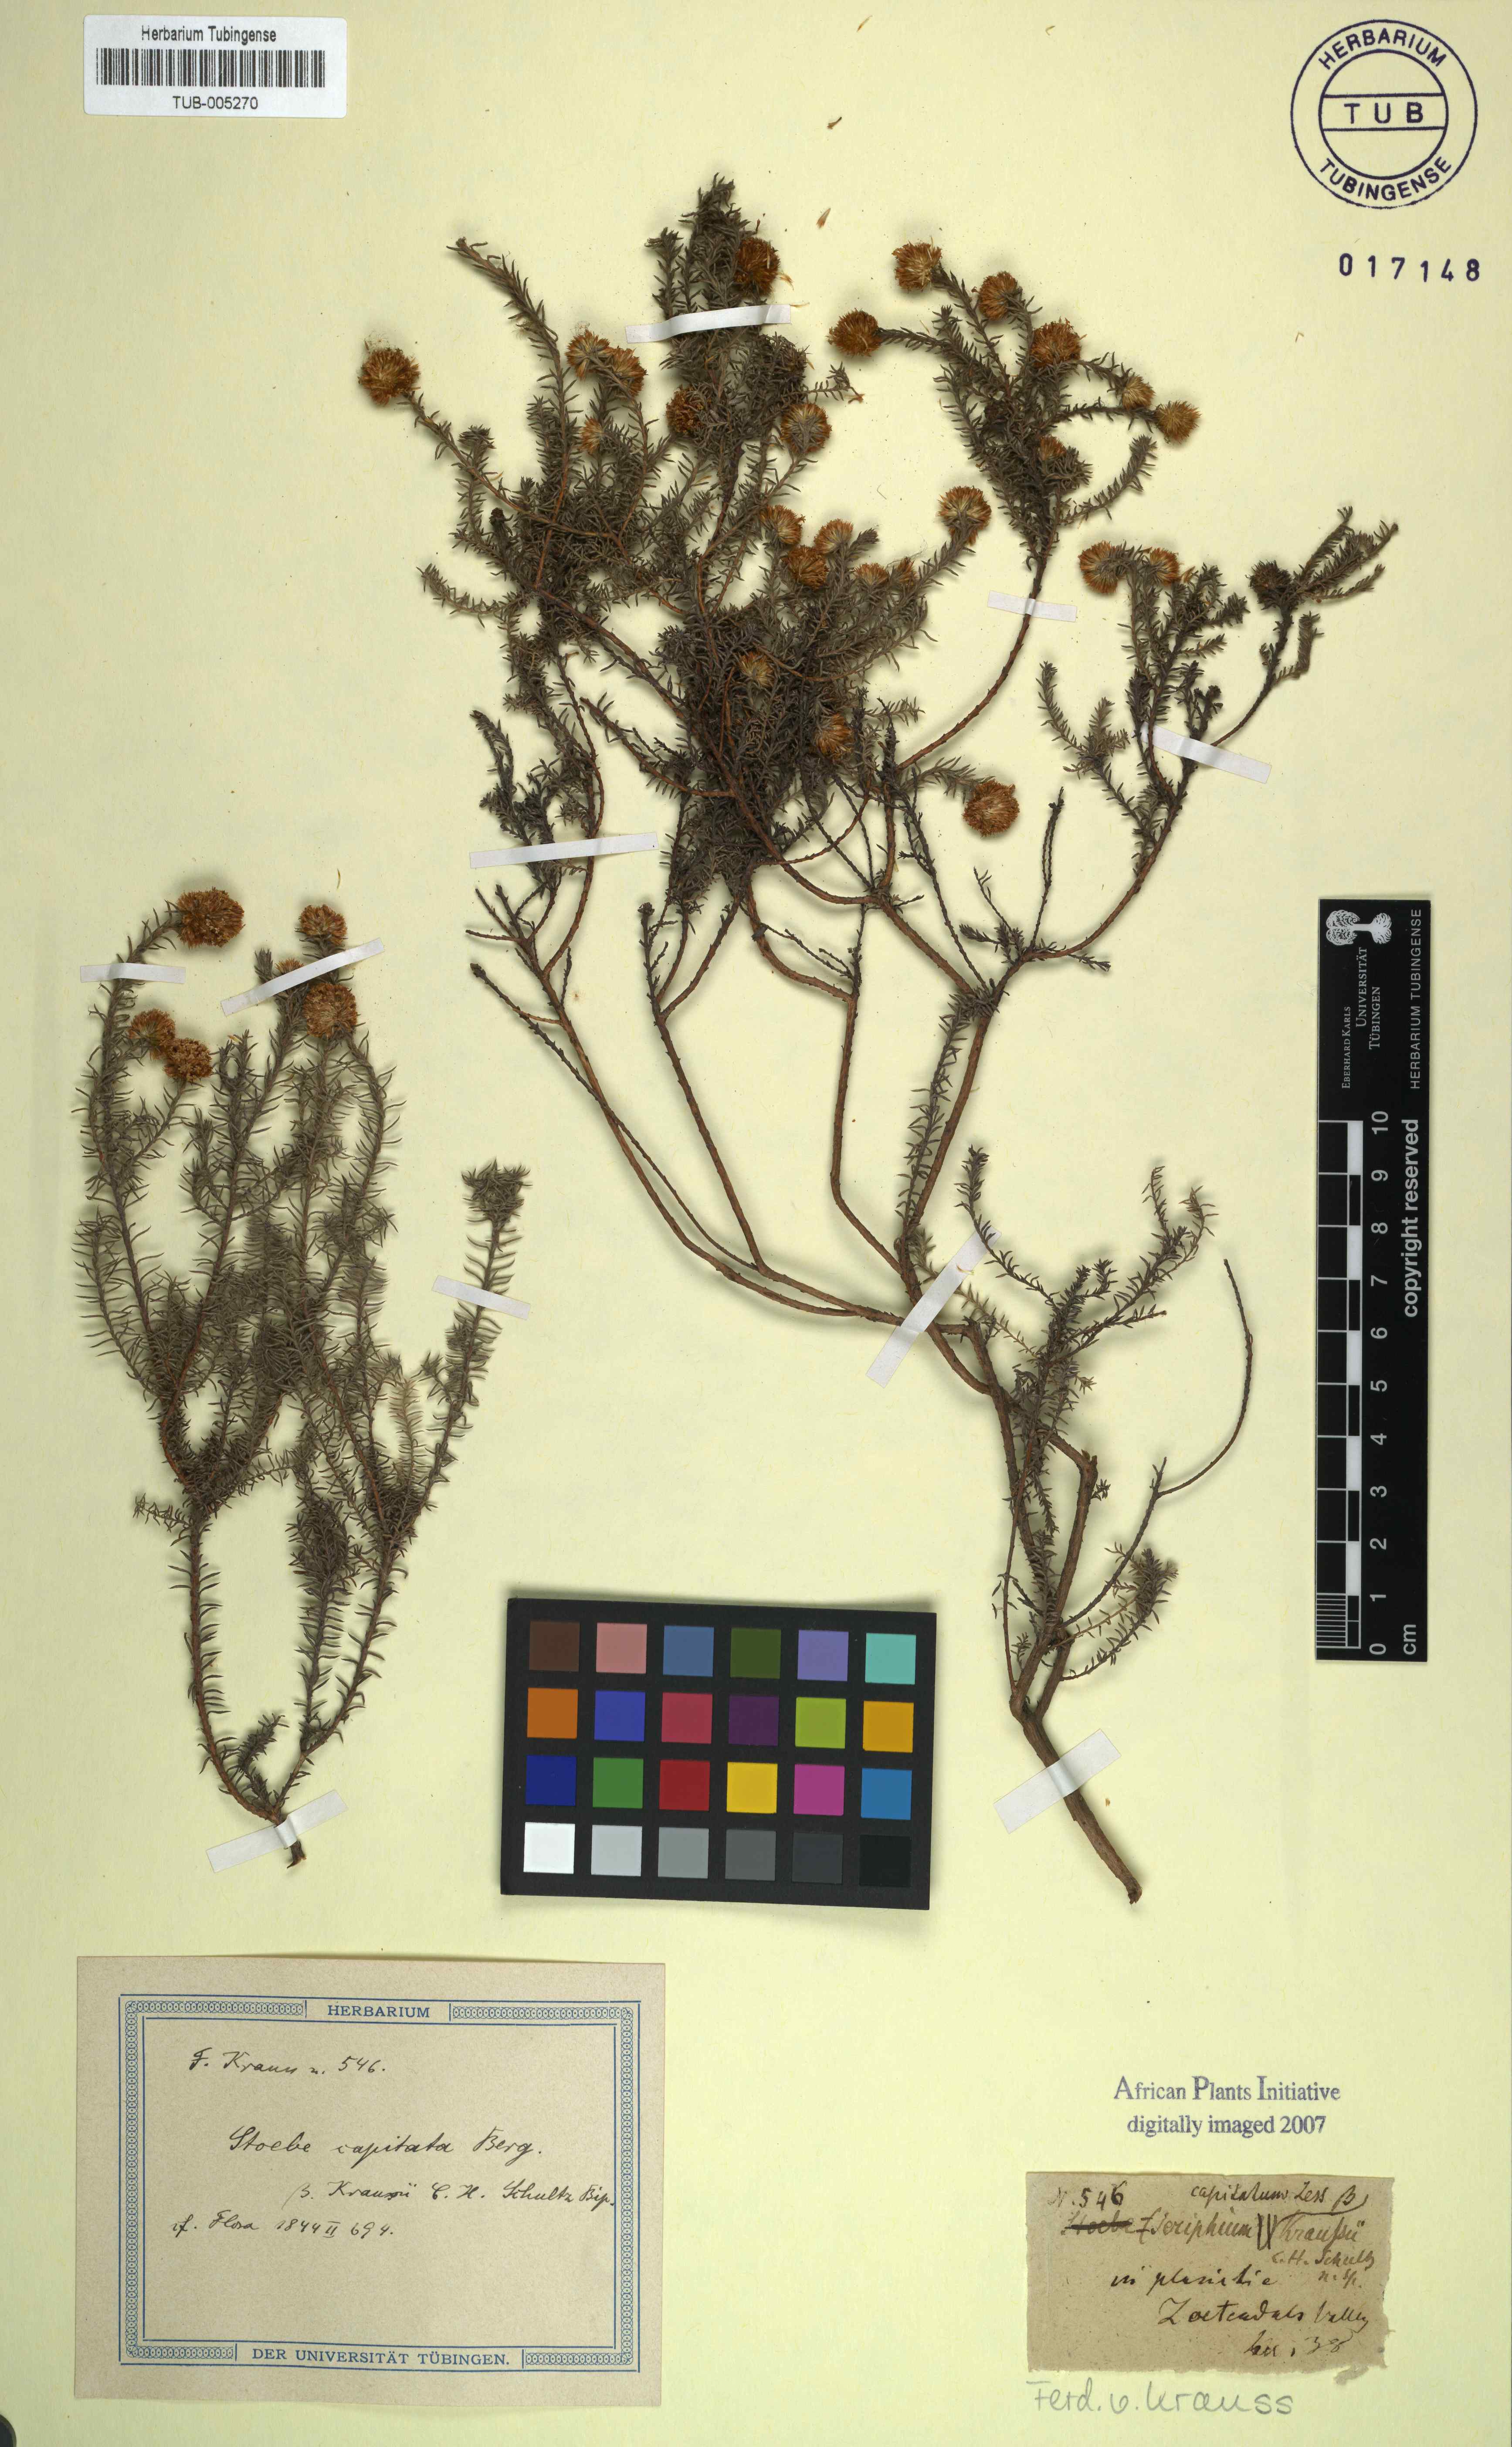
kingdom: Plantae
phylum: Tracheophyta
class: Magnoliopsida
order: Asterales
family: Asteraceae
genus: Stoebe
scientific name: Stoebe capitata
